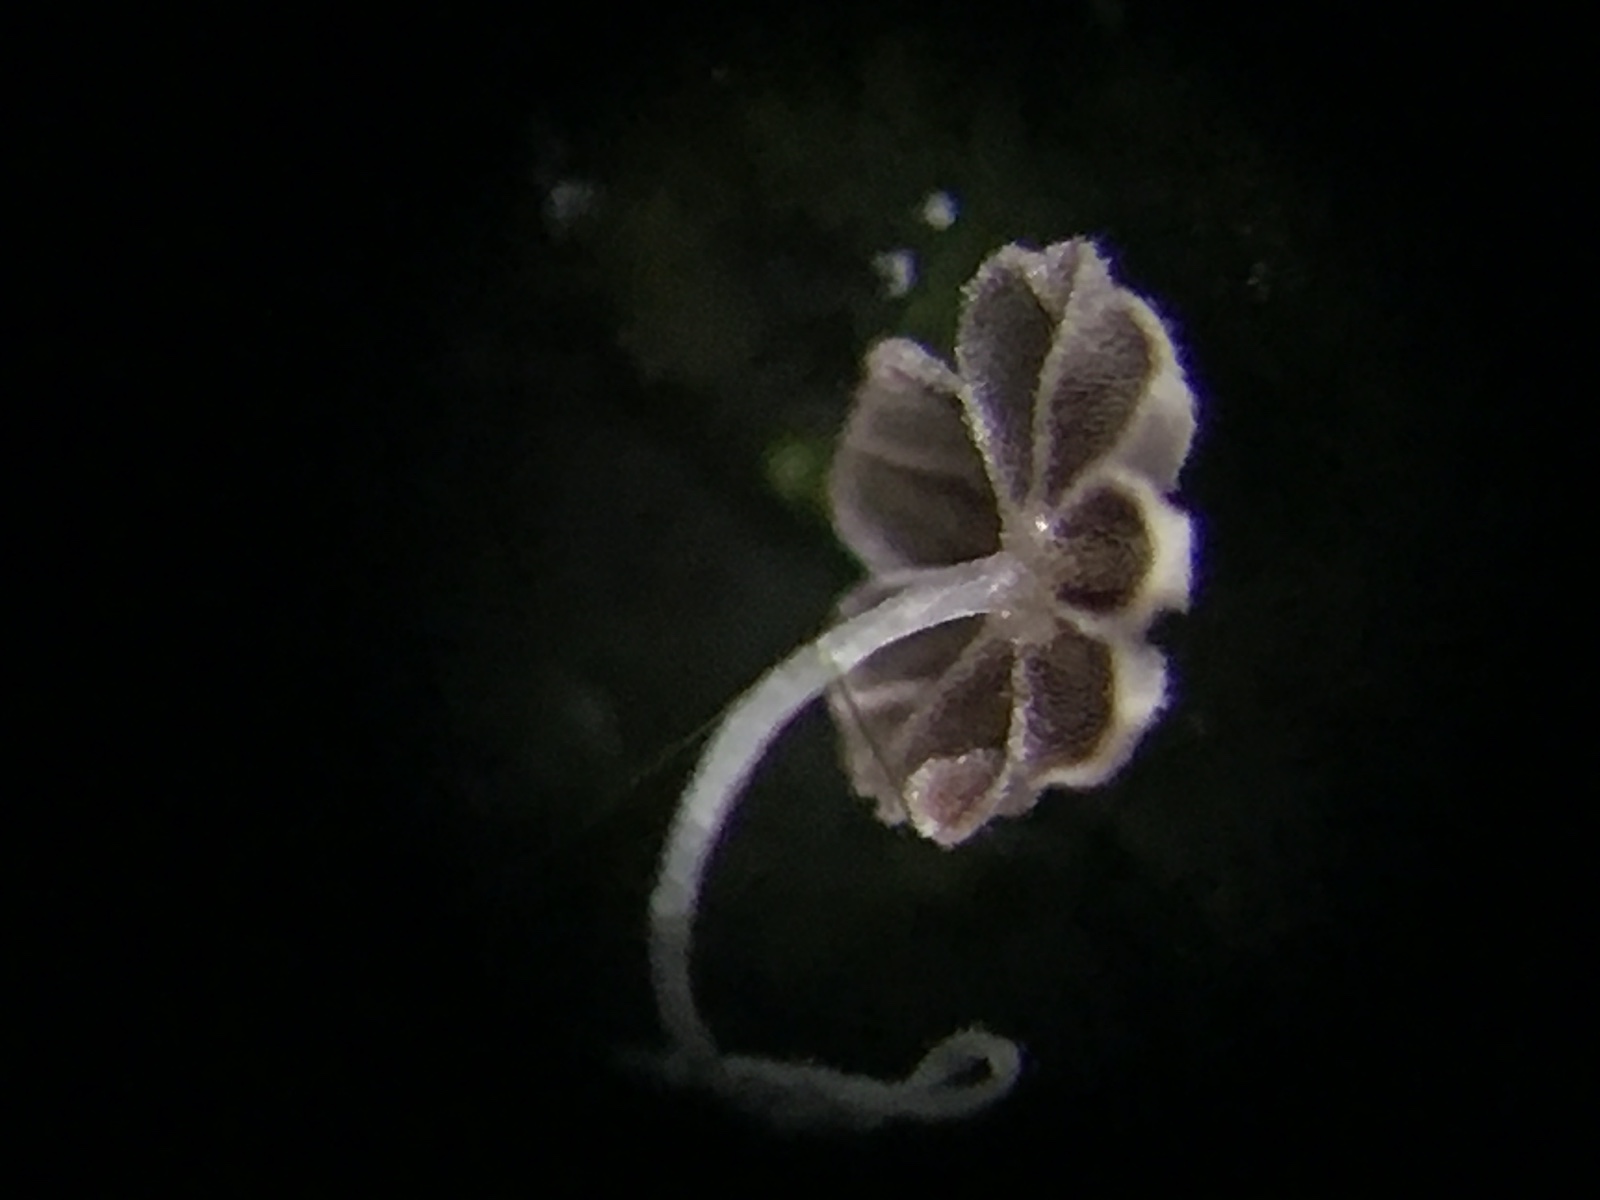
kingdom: Fungi
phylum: Basidiomycota
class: Agaricomycetes
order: Agaricales
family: Psathyrellaceae
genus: Coprinellus
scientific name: Coprinellus heptemerus
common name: hjorte-blækhat
